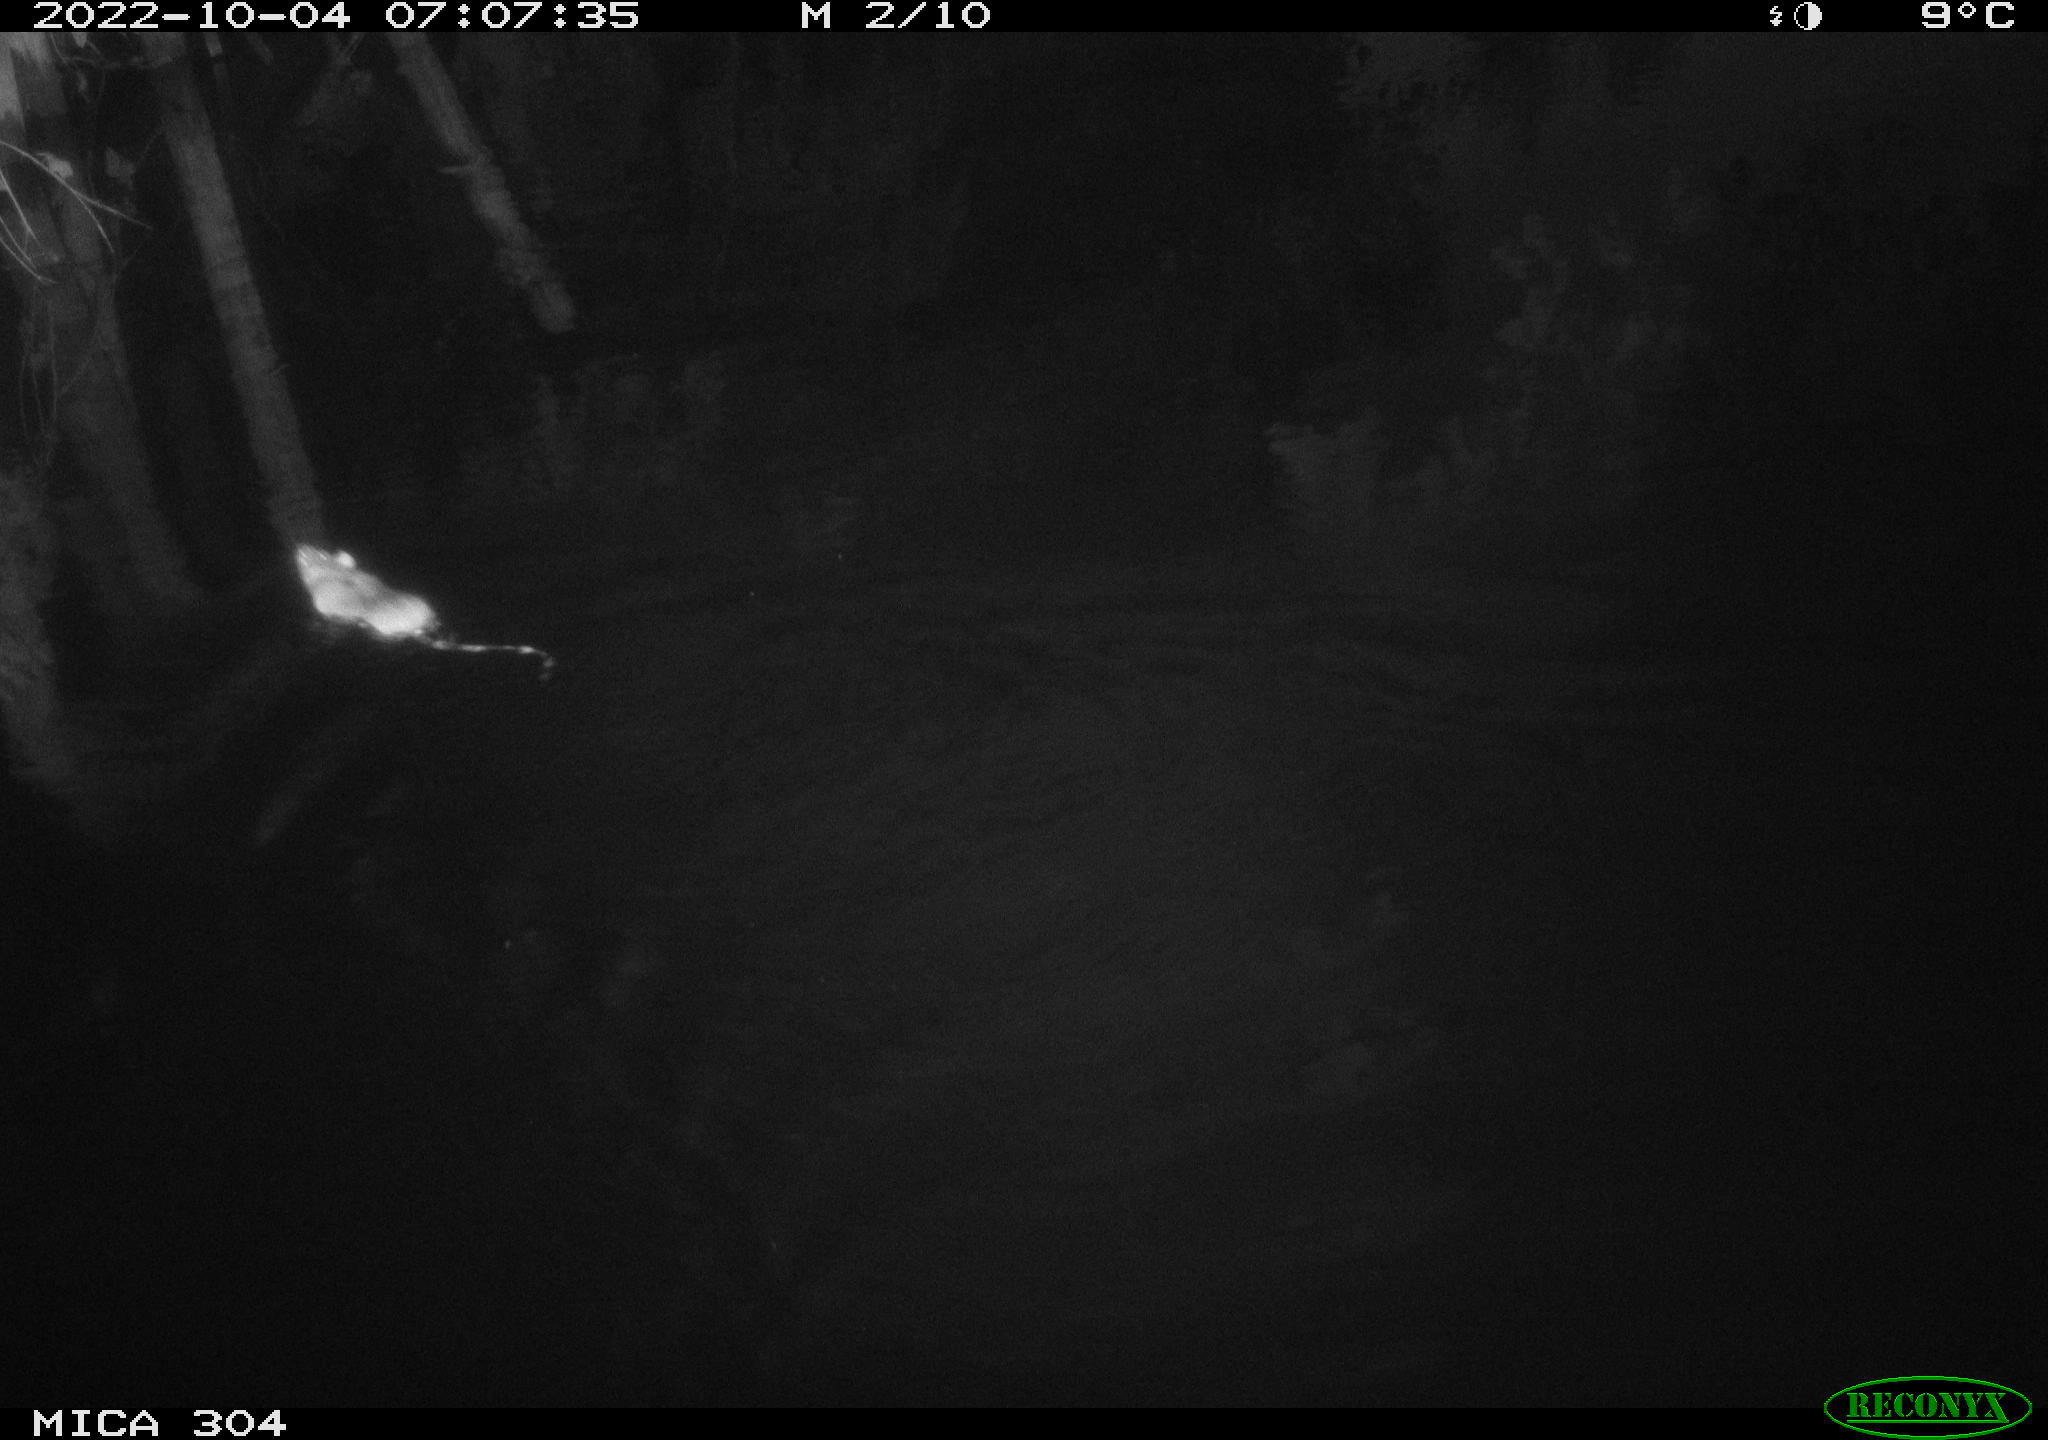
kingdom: Animalia
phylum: Chordata
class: Mammalia
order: Rodentia
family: Muridae
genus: Rattus
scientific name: Rattus norvegicus
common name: Brown rat
